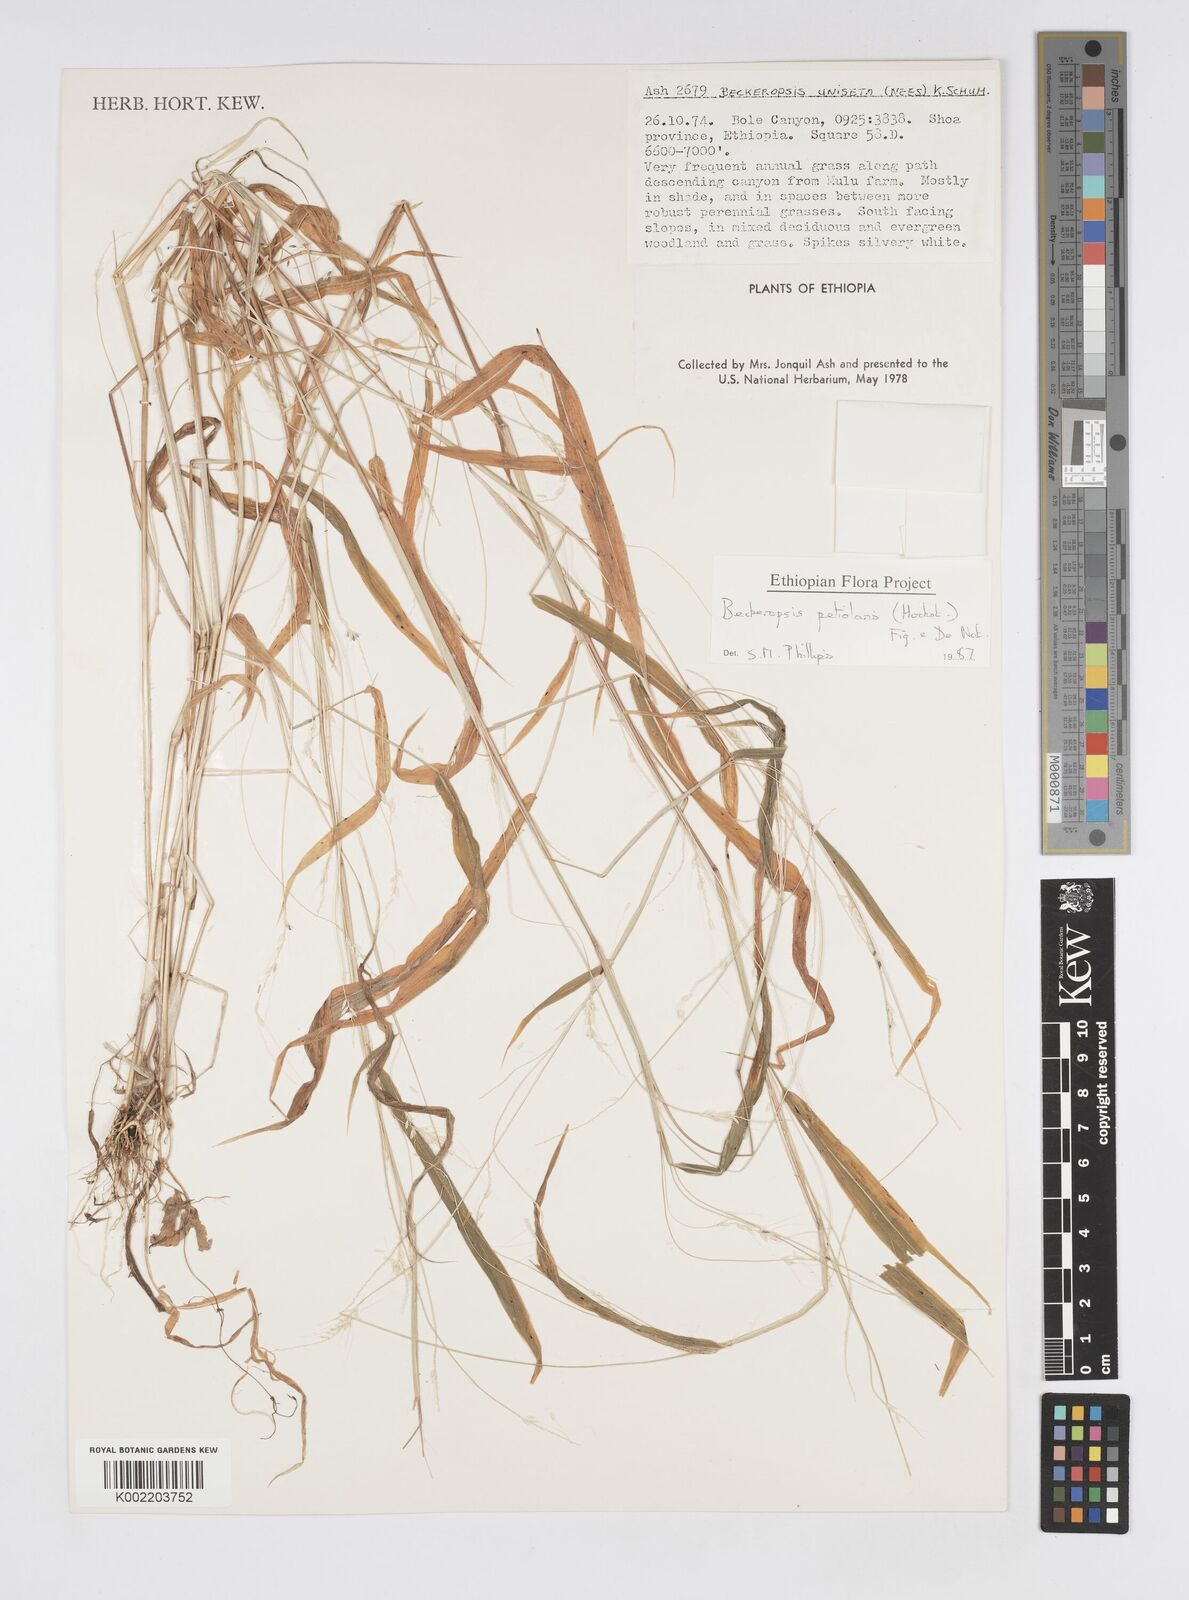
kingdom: Plantae
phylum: Tracheophyta
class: Liliopsida
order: Poales
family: Poaceae
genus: Cenchrus
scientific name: Cenchrus petiolaris
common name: Grass
